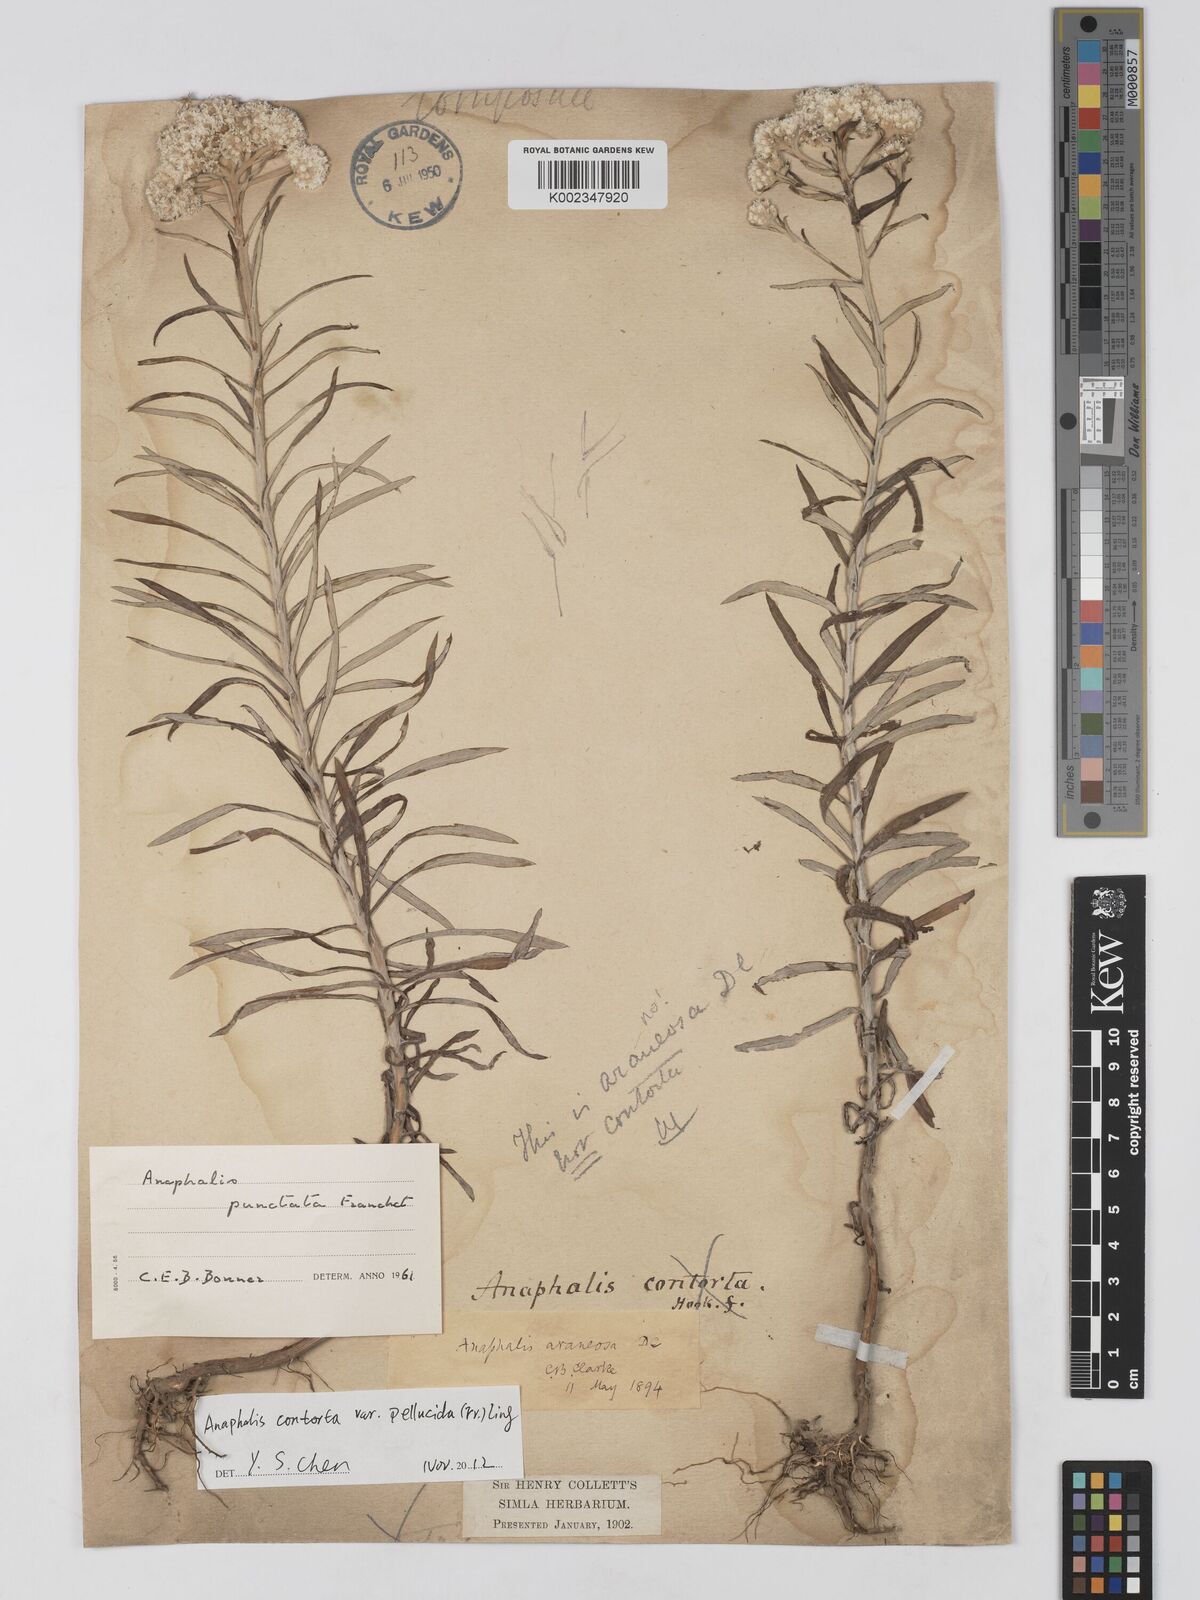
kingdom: Plantae
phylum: Tracheophyta
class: Magnoliopsida
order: Asterales
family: Asteraceae
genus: Anaphalis
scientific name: Anaphalis
